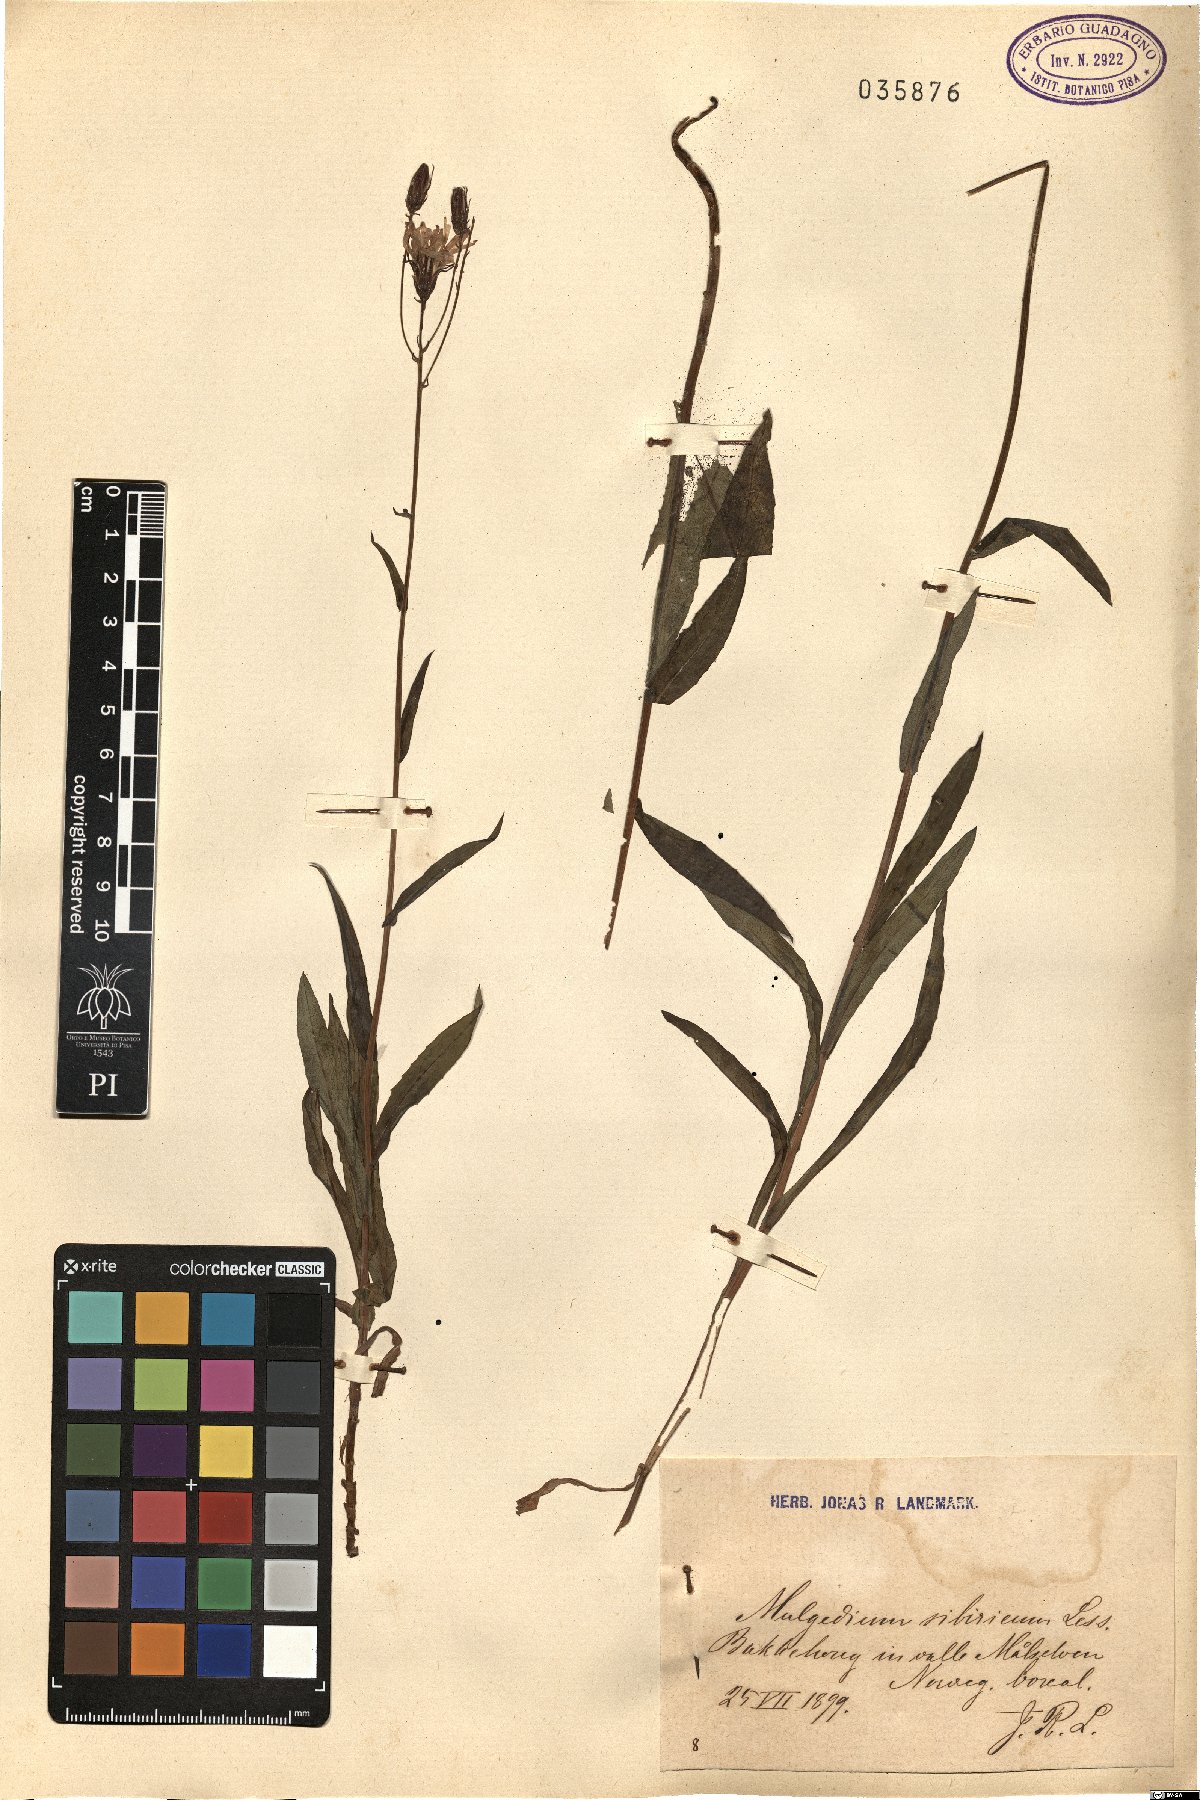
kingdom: Plantae
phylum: Tracheophyta
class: Magnoliopsida
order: Asterales
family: Asteraceae
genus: Lactuca
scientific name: Lactuca sibirica
